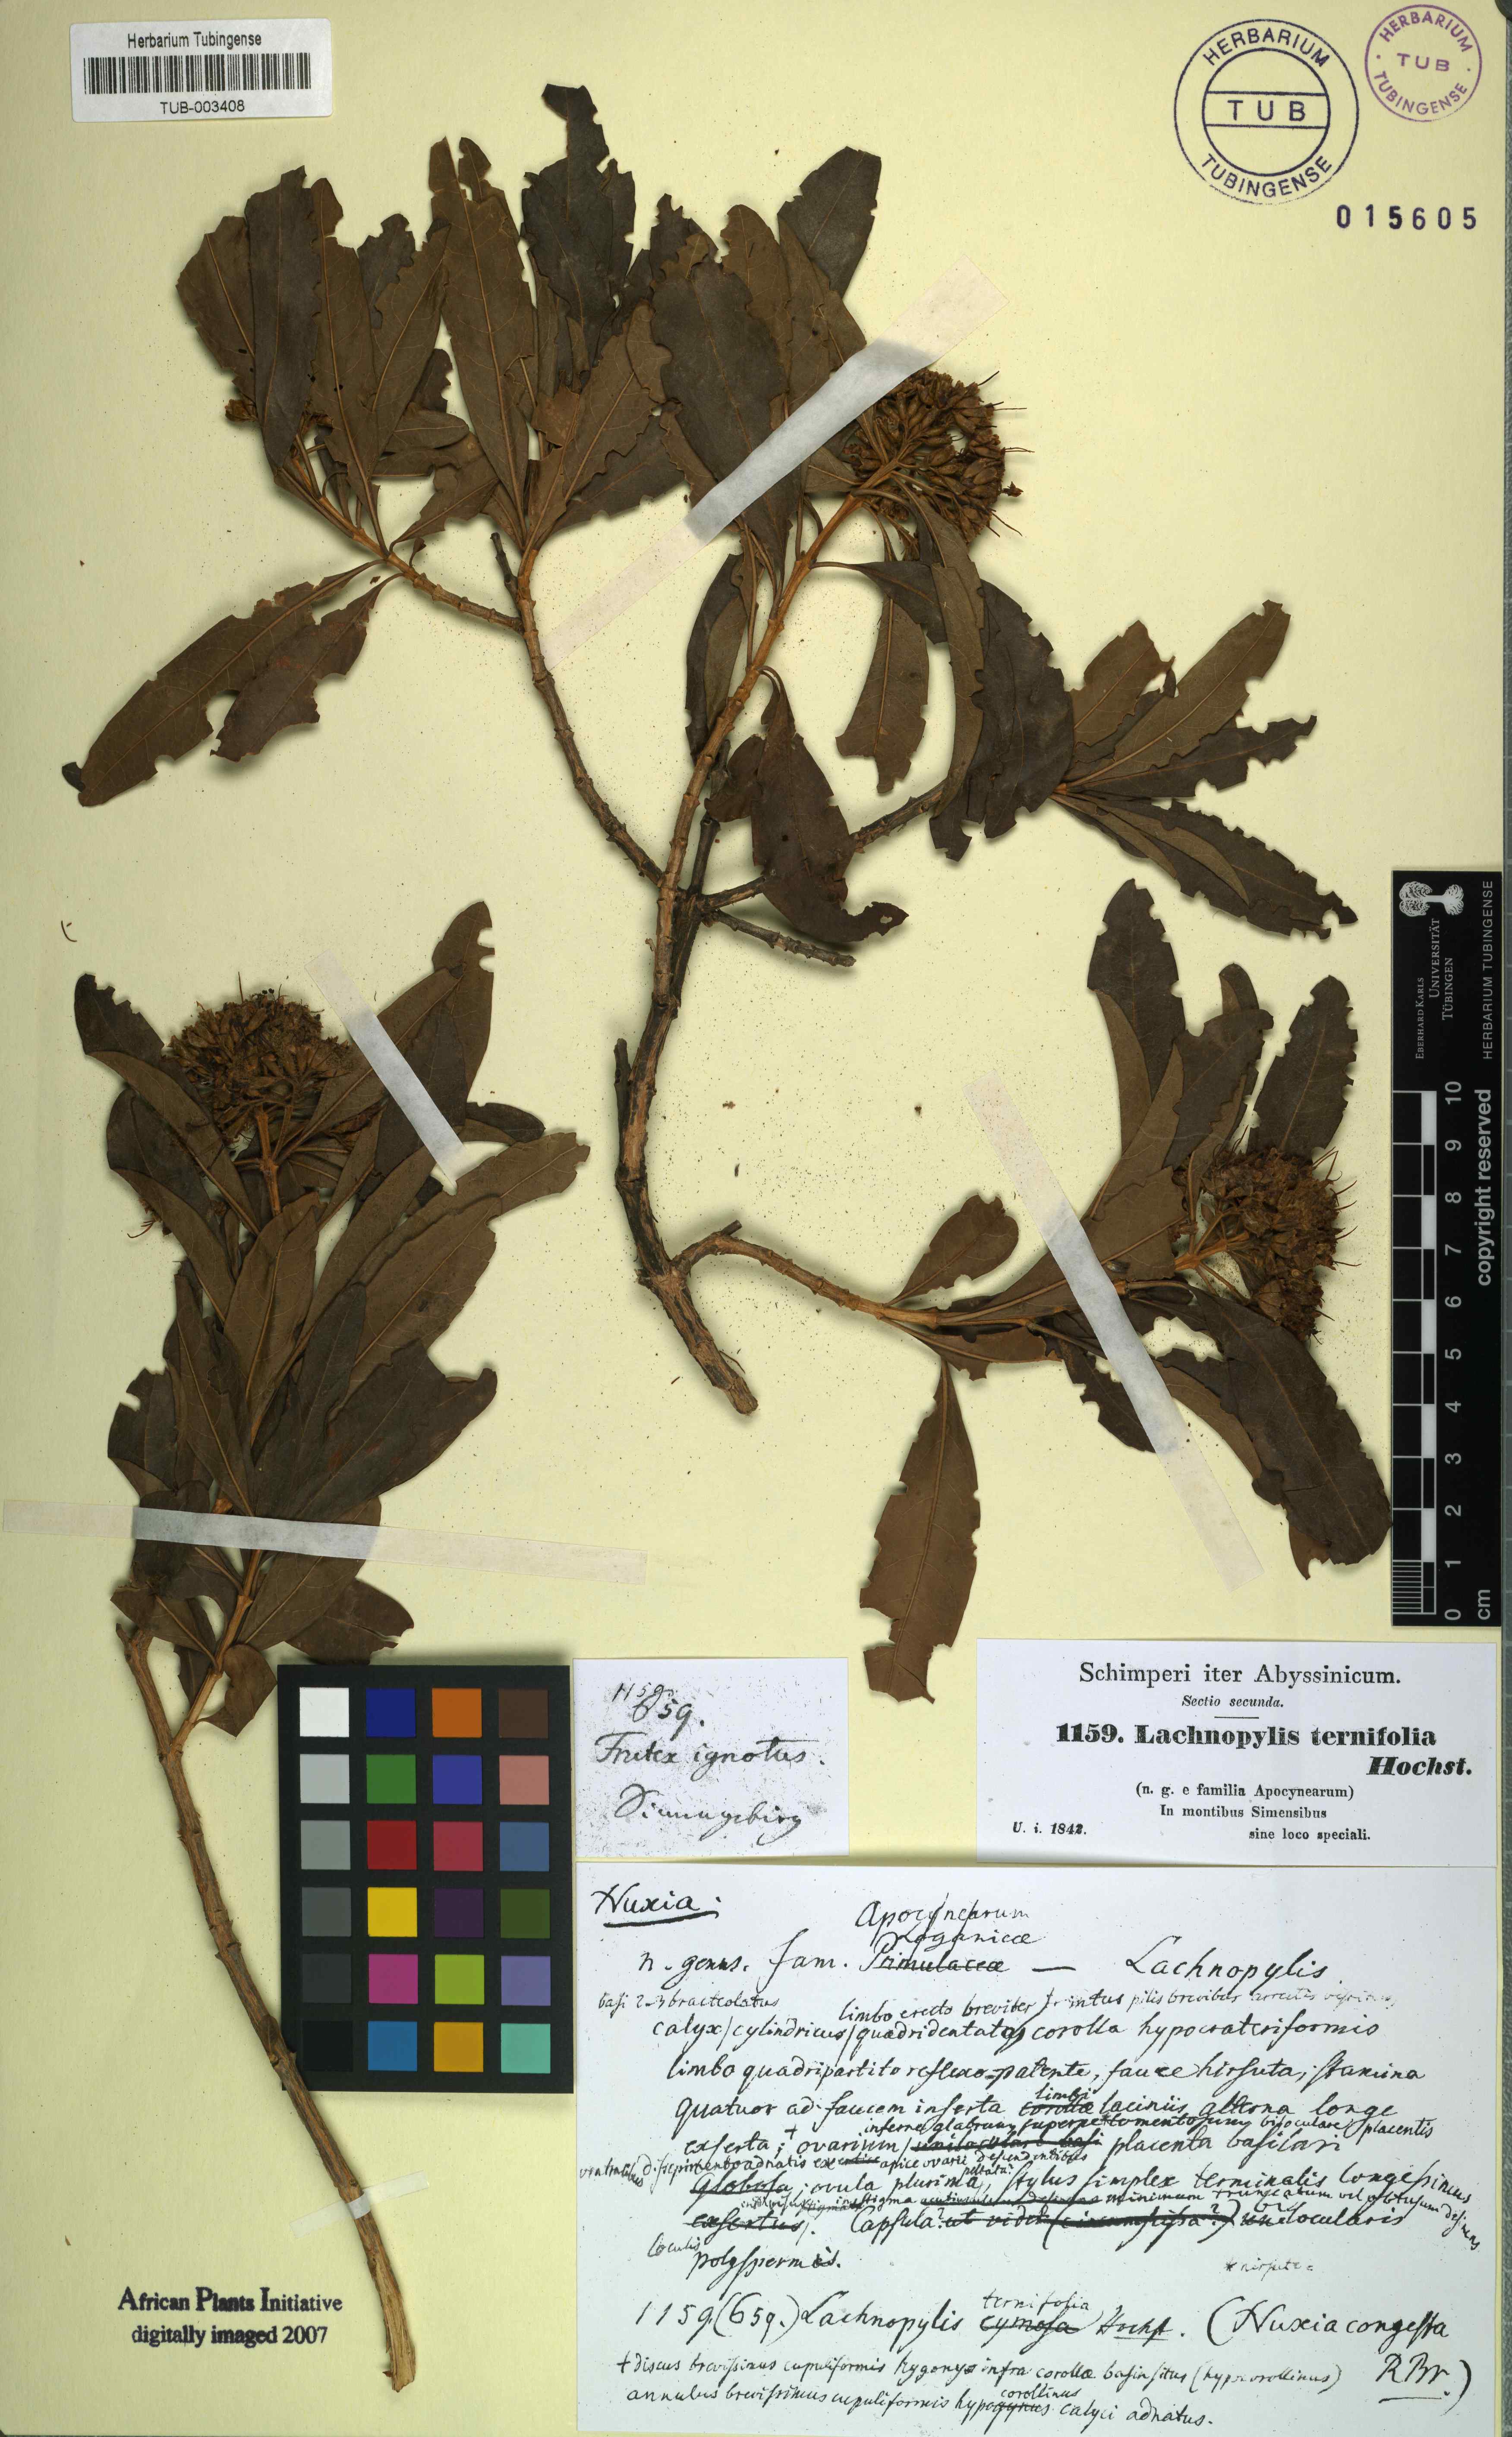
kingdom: Plantae
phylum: Tracheophyta
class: Magnoliopsida
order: Lamiales
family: Stilbaceae
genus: Nuxia
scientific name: Nuxia congesta
